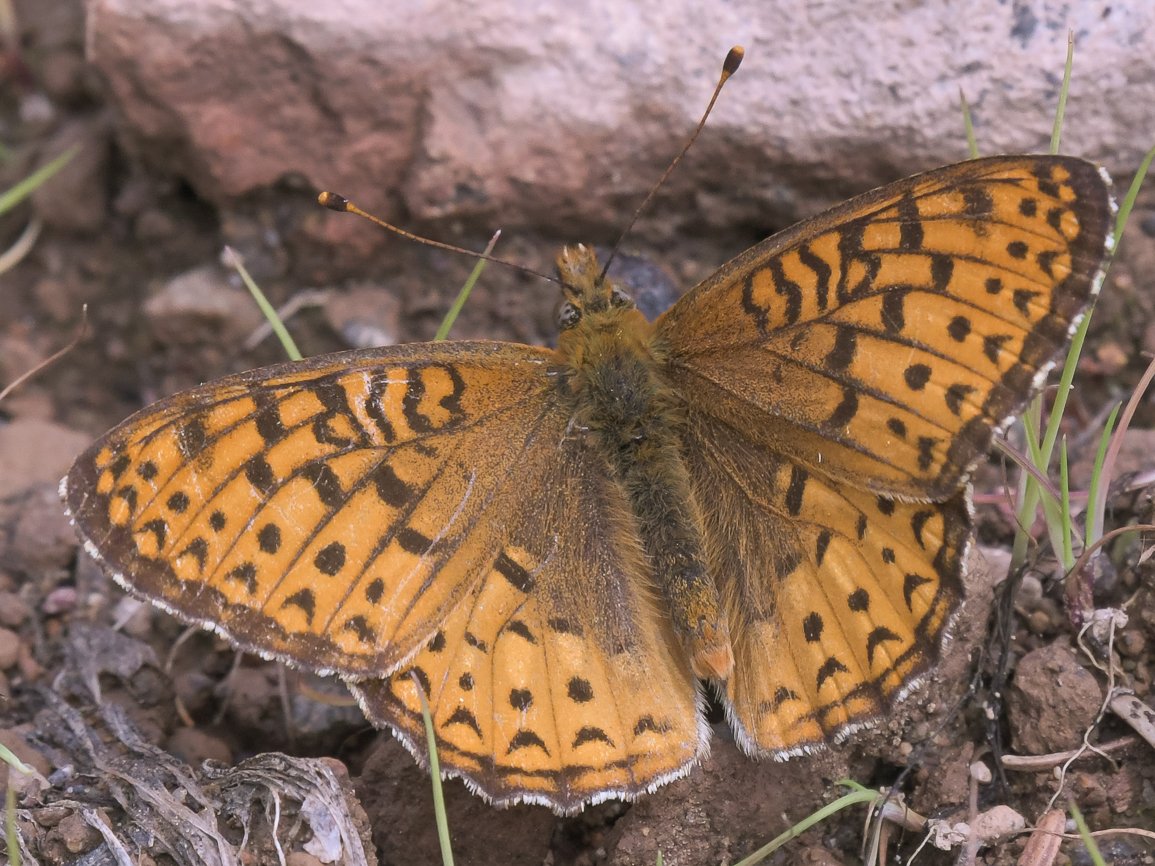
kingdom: Animalia
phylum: Arthropoda
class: Insecta
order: Lepidoptera
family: Nymphalidae
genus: Speyeria
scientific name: Speyeria atlantis
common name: Northwestern Fritillary
